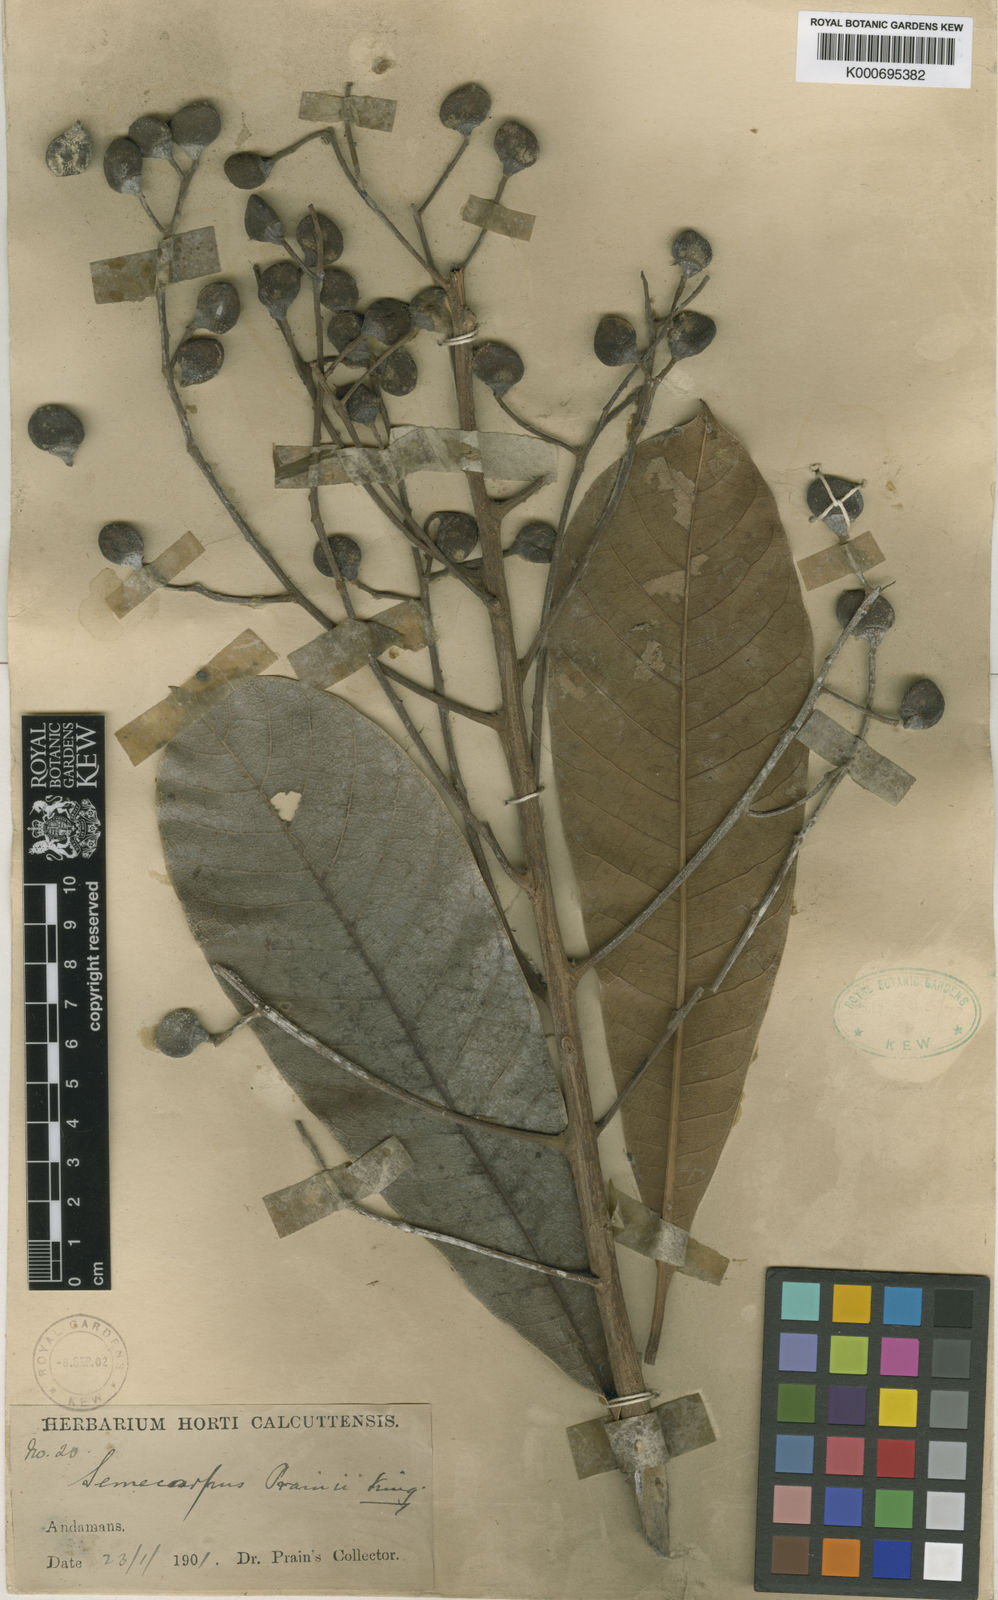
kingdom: Plantae
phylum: Tracheophyta
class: Magnoliopsida
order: Sapindales
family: Anacardiaceae
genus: Semecarpus
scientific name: Semecarpus prainii
